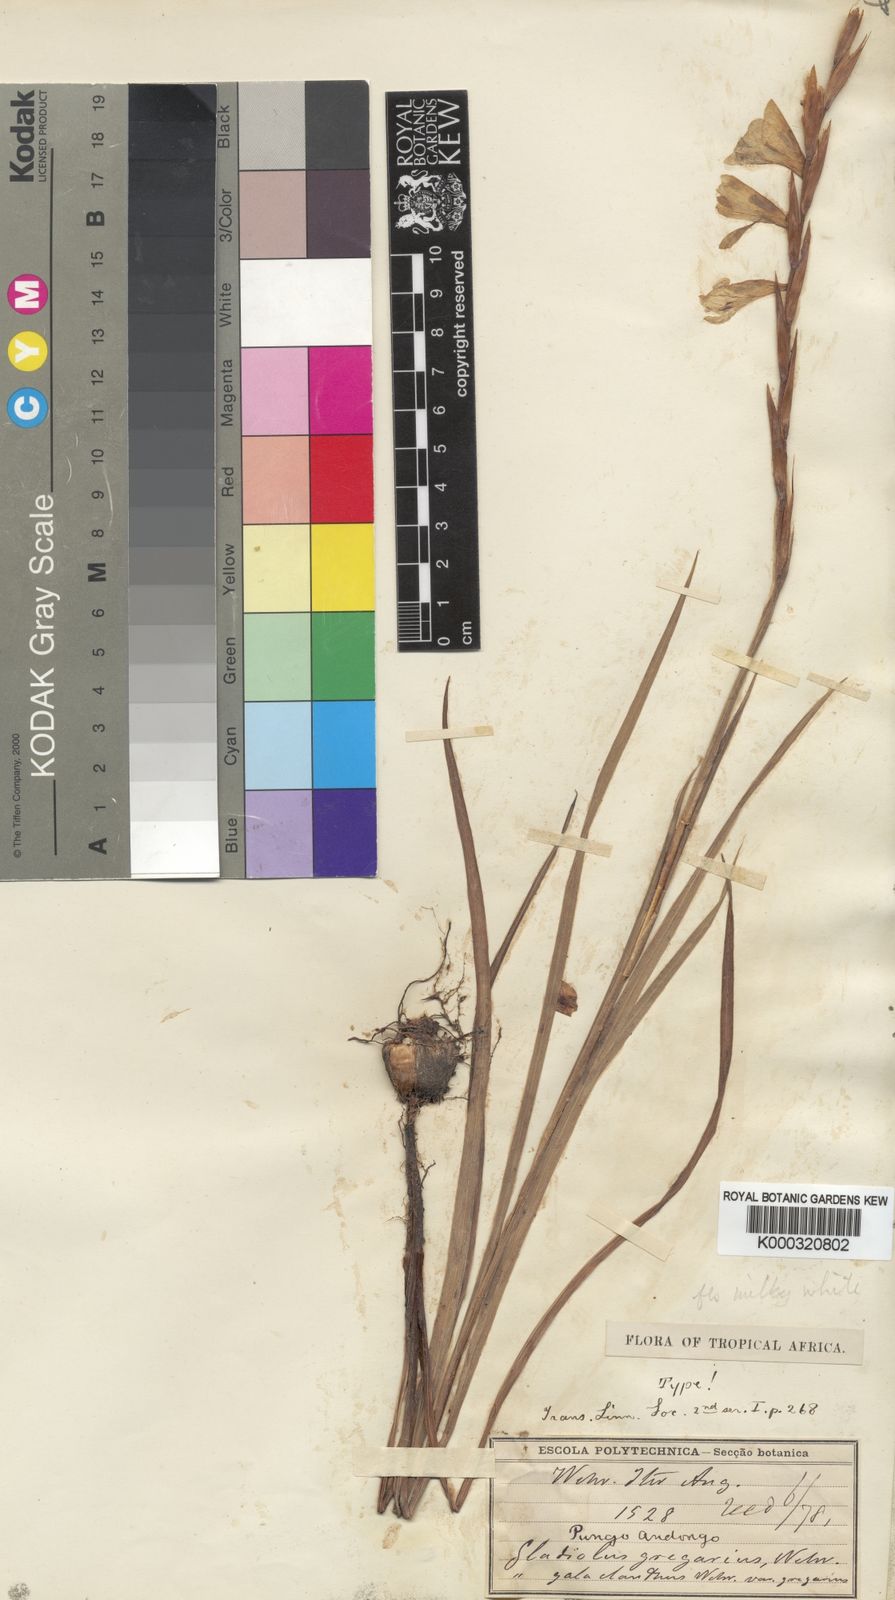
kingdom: Plantae
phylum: Tracheophyta
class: Liliopsida
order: Asparagales
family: Iridaceae
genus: Gladiolus
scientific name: Gladiolus gregarius
